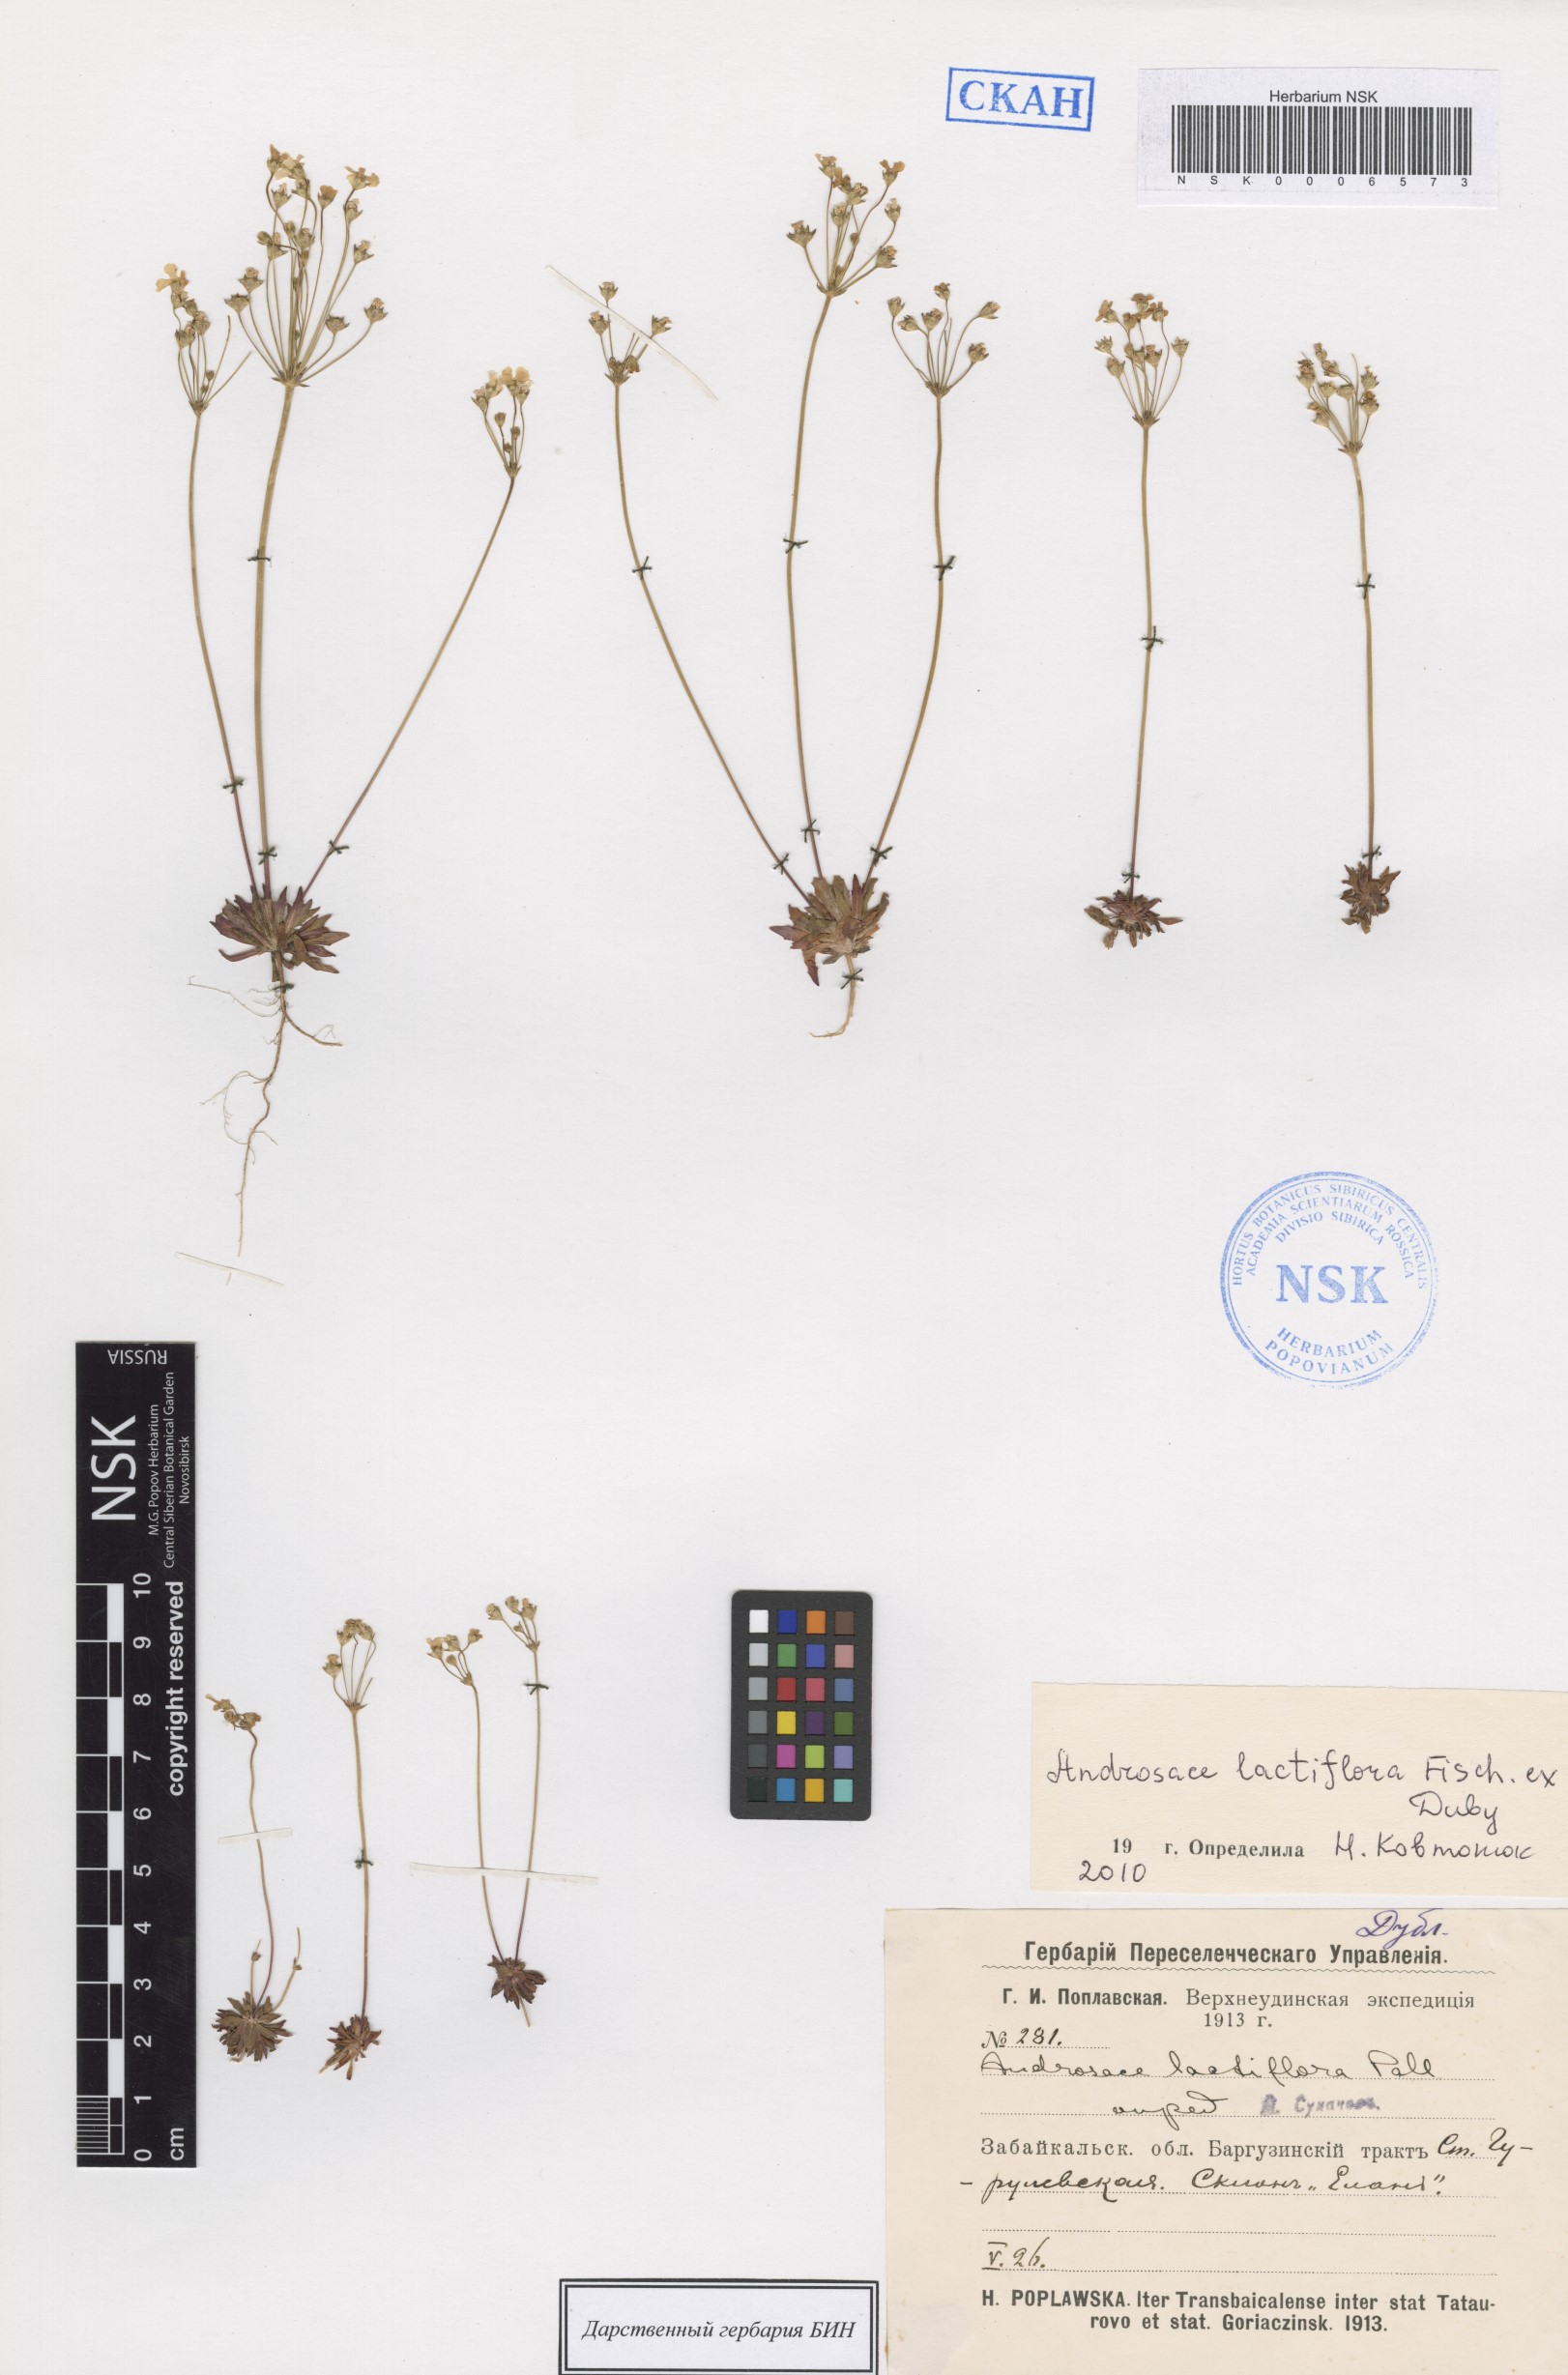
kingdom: Plantae
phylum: Tracheophyta
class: Magnoliopsida
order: Ericales
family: Primulaceae
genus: Androsace
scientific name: Androsace lactiflora
